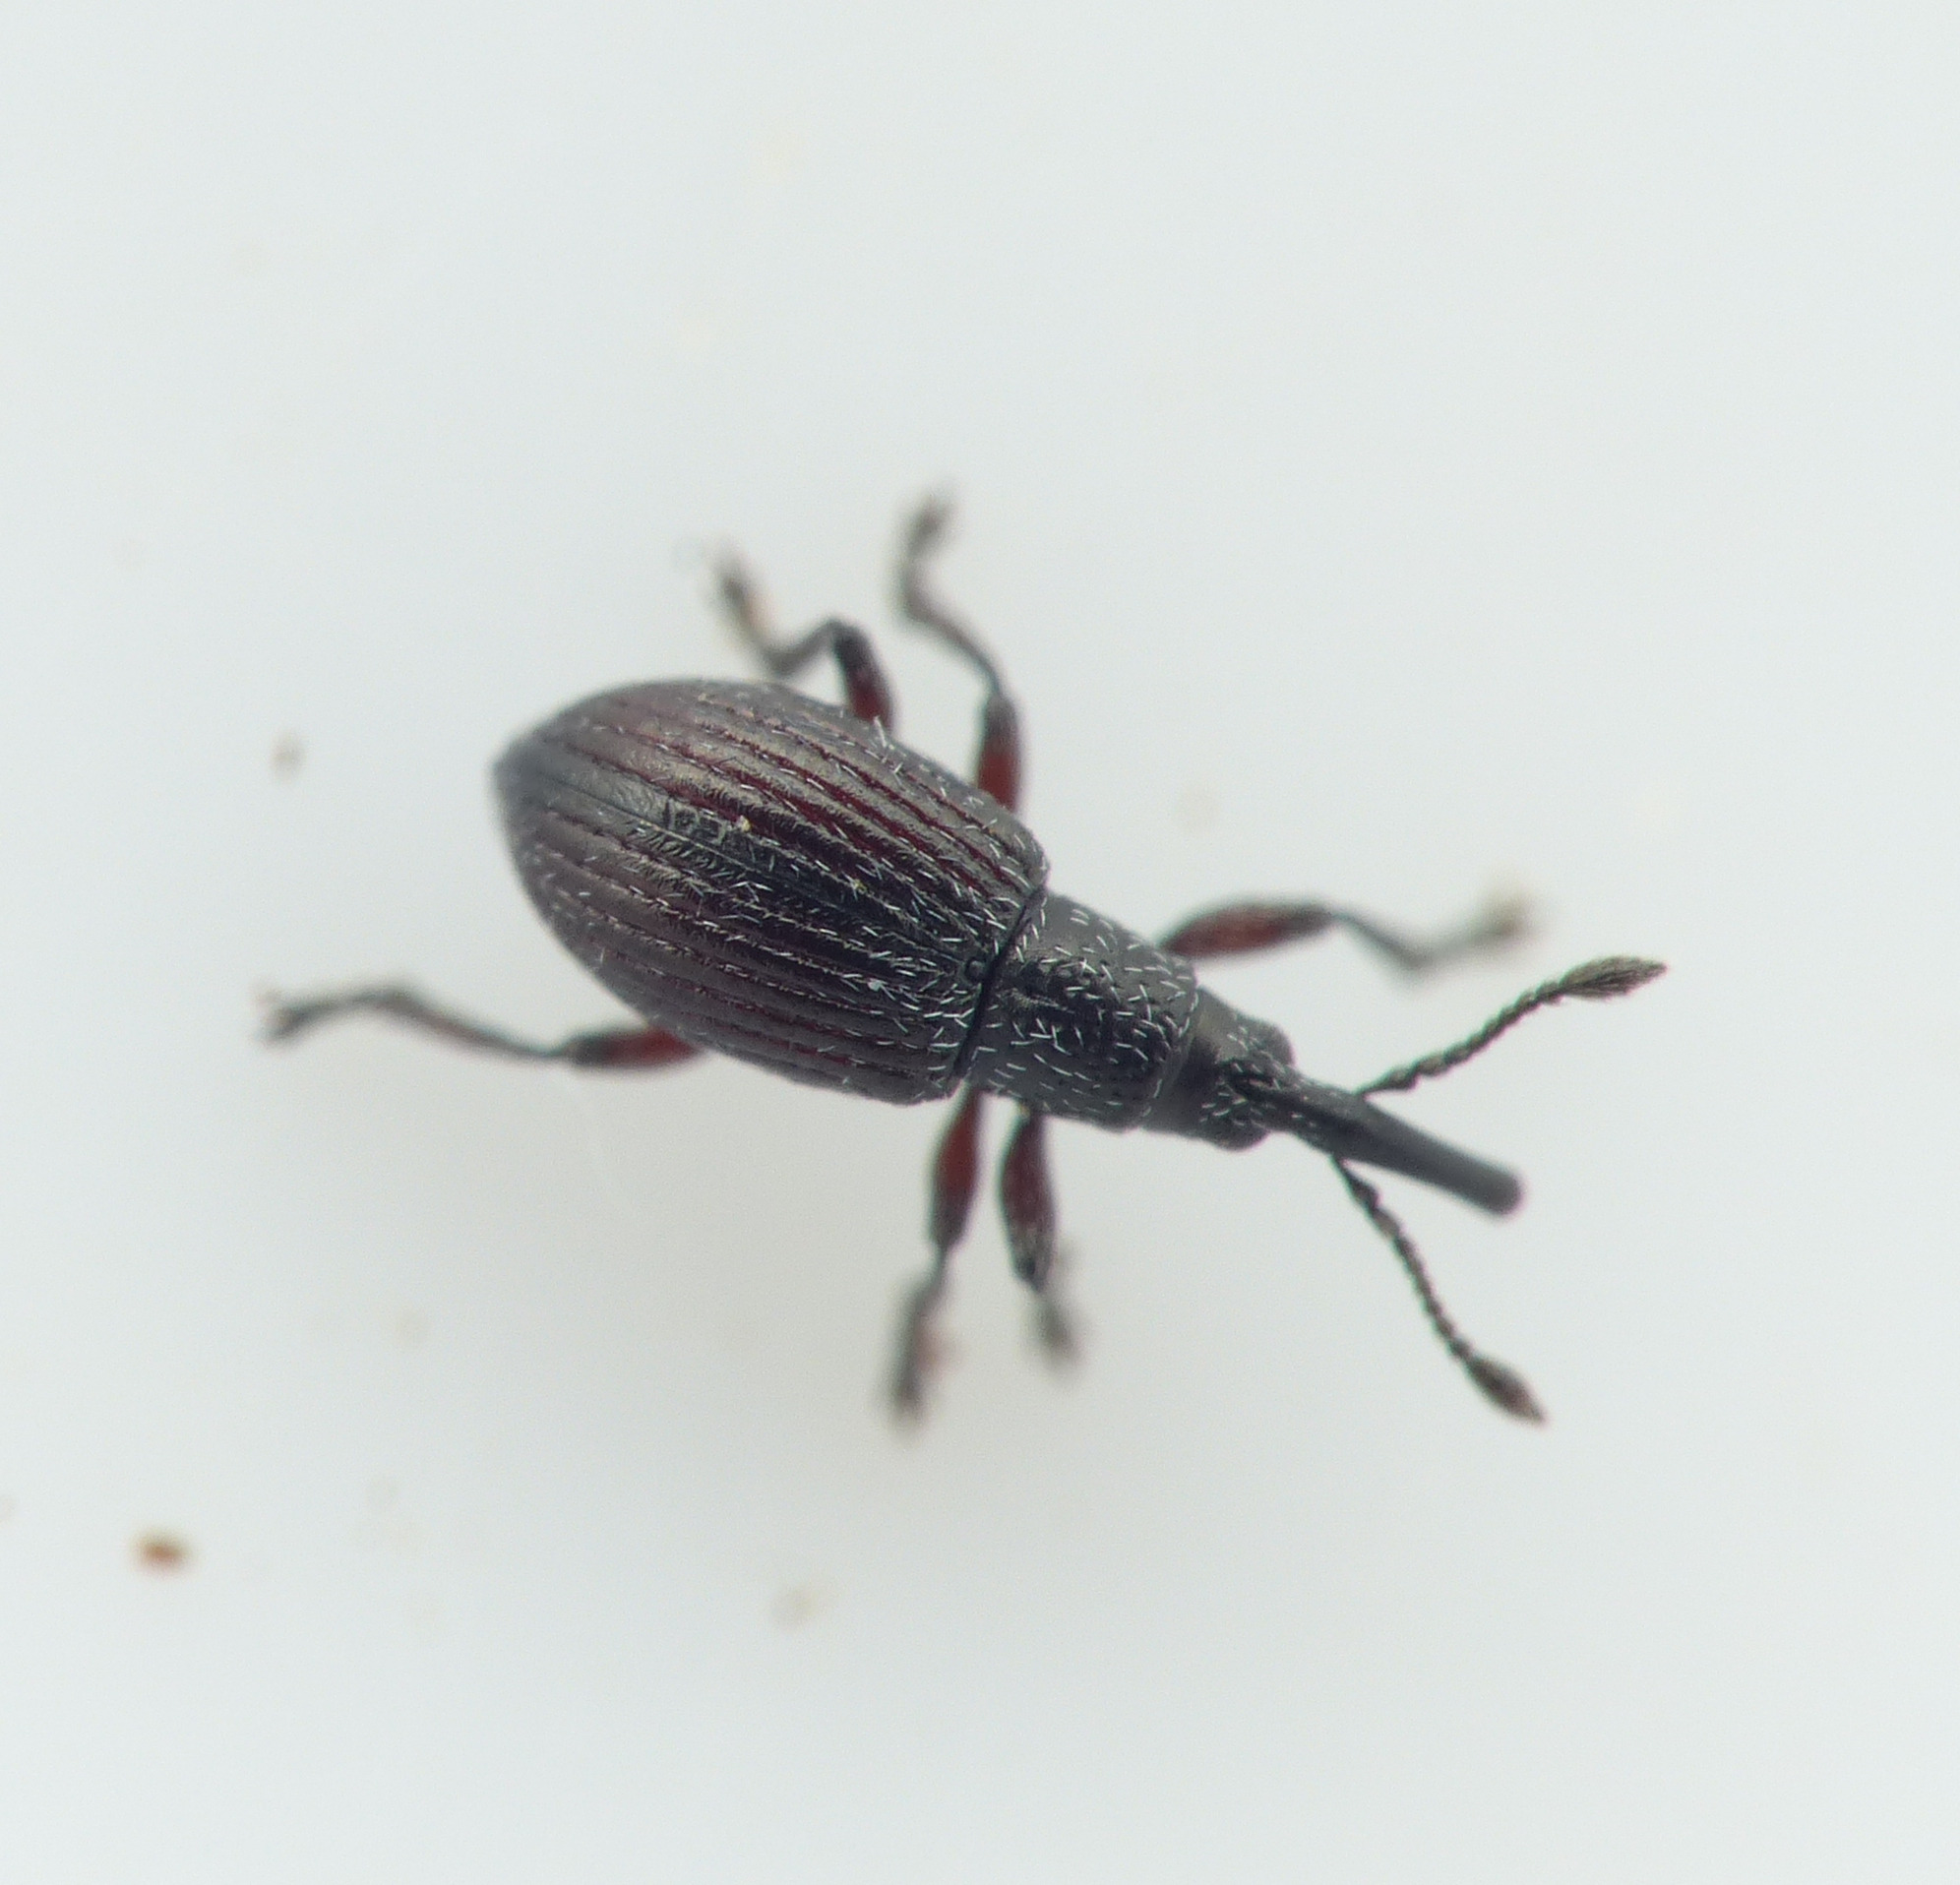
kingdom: Animalia
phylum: Arthropoda
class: Insecta
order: Coleoptera
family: Apionidae
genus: Diplapion
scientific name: Diplapion confluens
